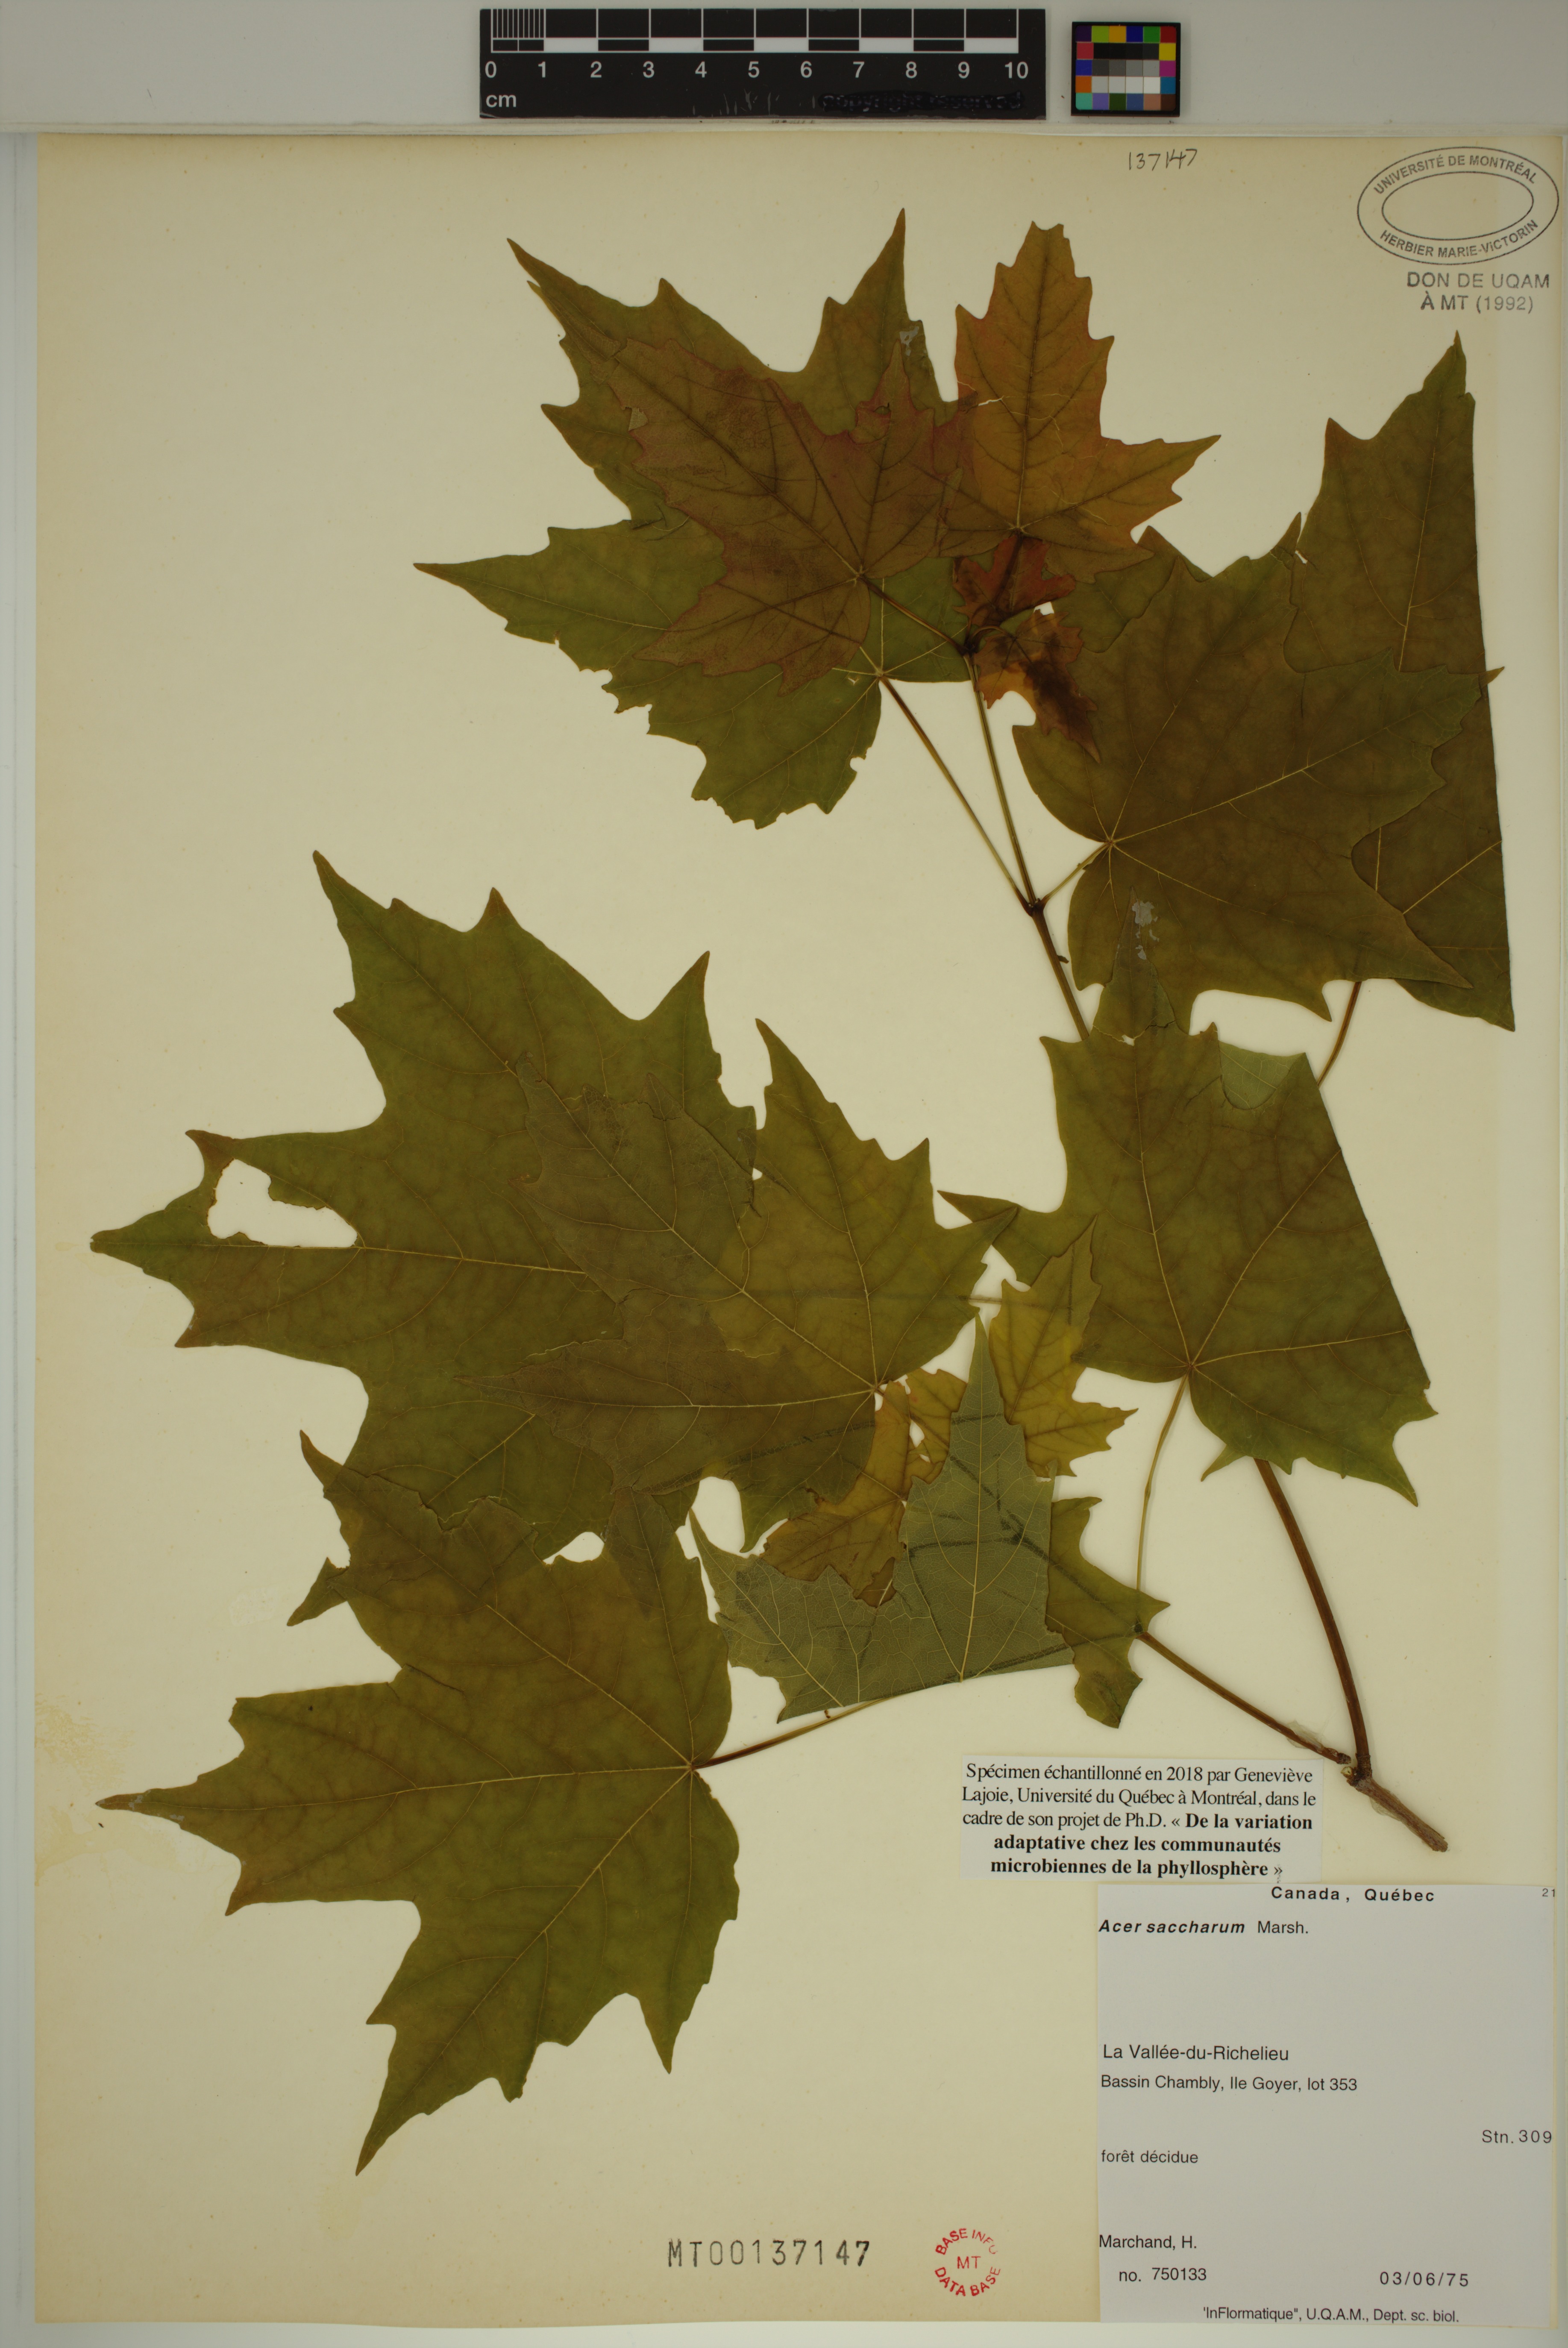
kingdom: Plantae
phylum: Tracheophyta
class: Magnoliopsida
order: Sapindales
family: Sapindaceae
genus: Acer
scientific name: Acer saccharum
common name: Sugar maple
